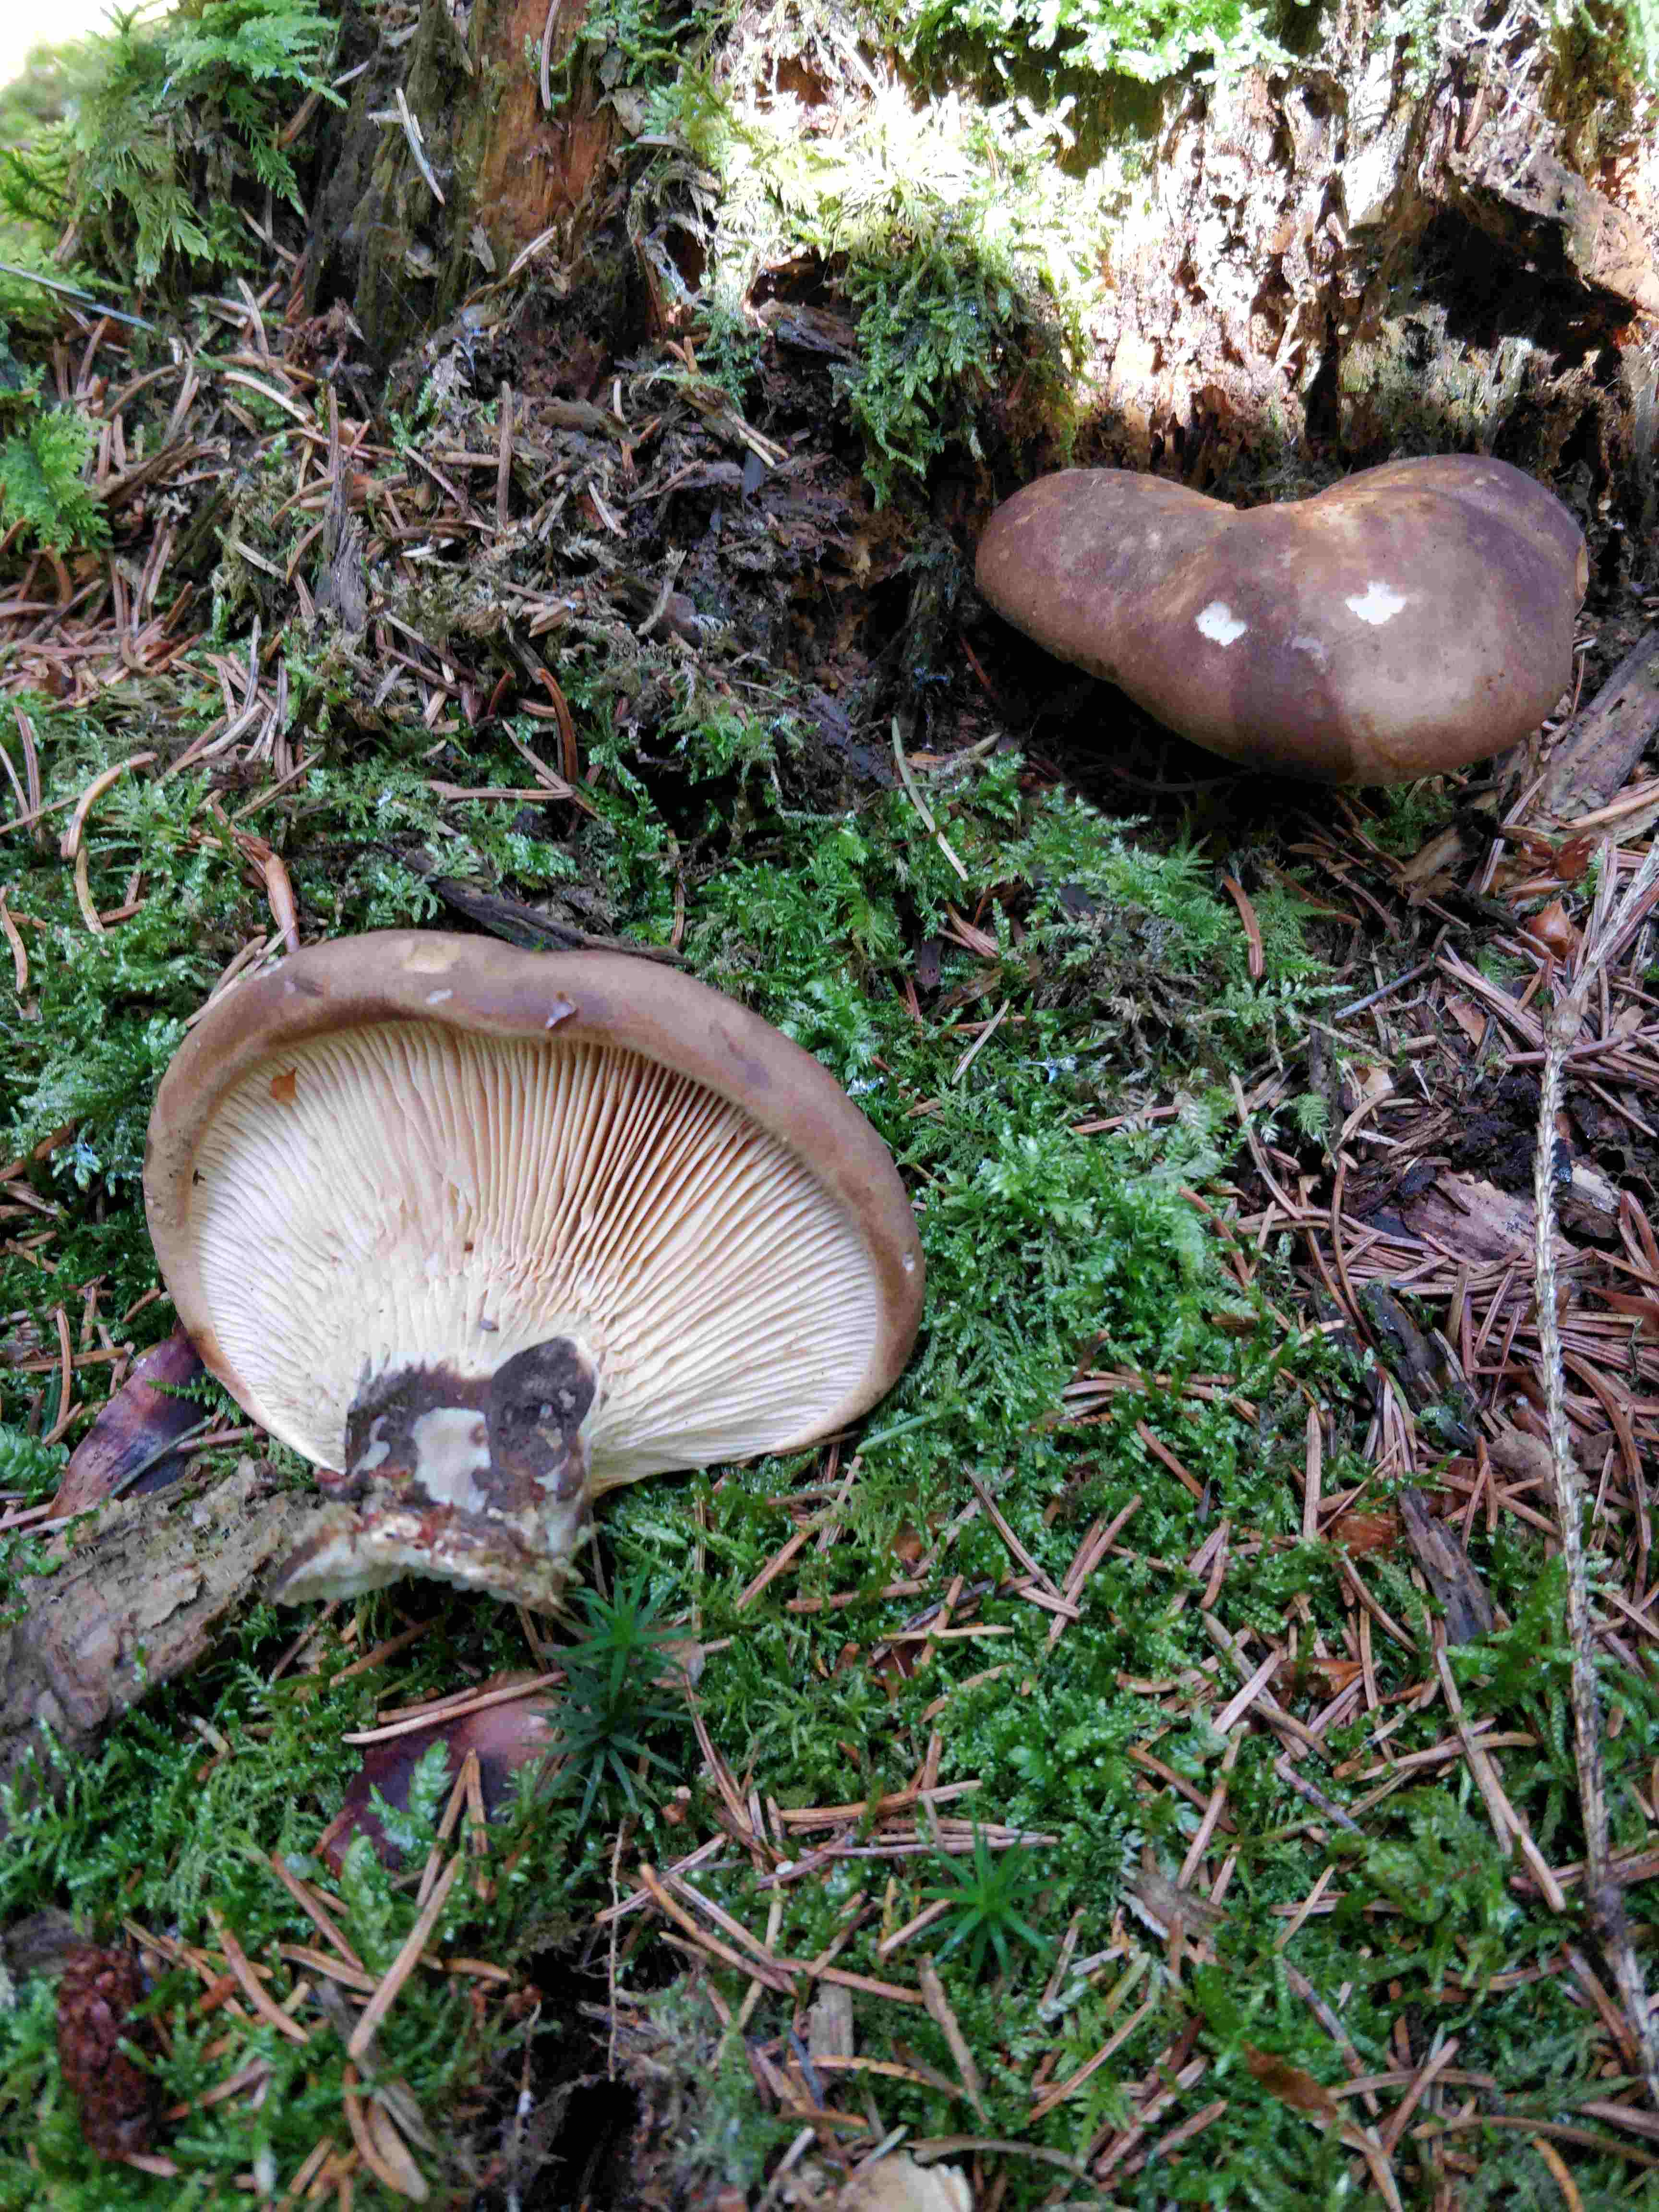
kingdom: Fungi
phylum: Basidiomycota
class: Agaricomycetes
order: Boletales
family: Tapinellaceae
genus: Tapinella
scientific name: Tapinella atrotomentosa
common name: sortfiltet viftesvamp
